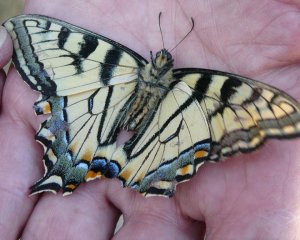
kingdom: Animalia
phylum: Arthropoda
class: Insecta
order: Lepidoptera
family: Papilionidae
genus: Pterourus
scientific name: Pterourus canadensis
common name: Canadian Tiger Swallowtail
